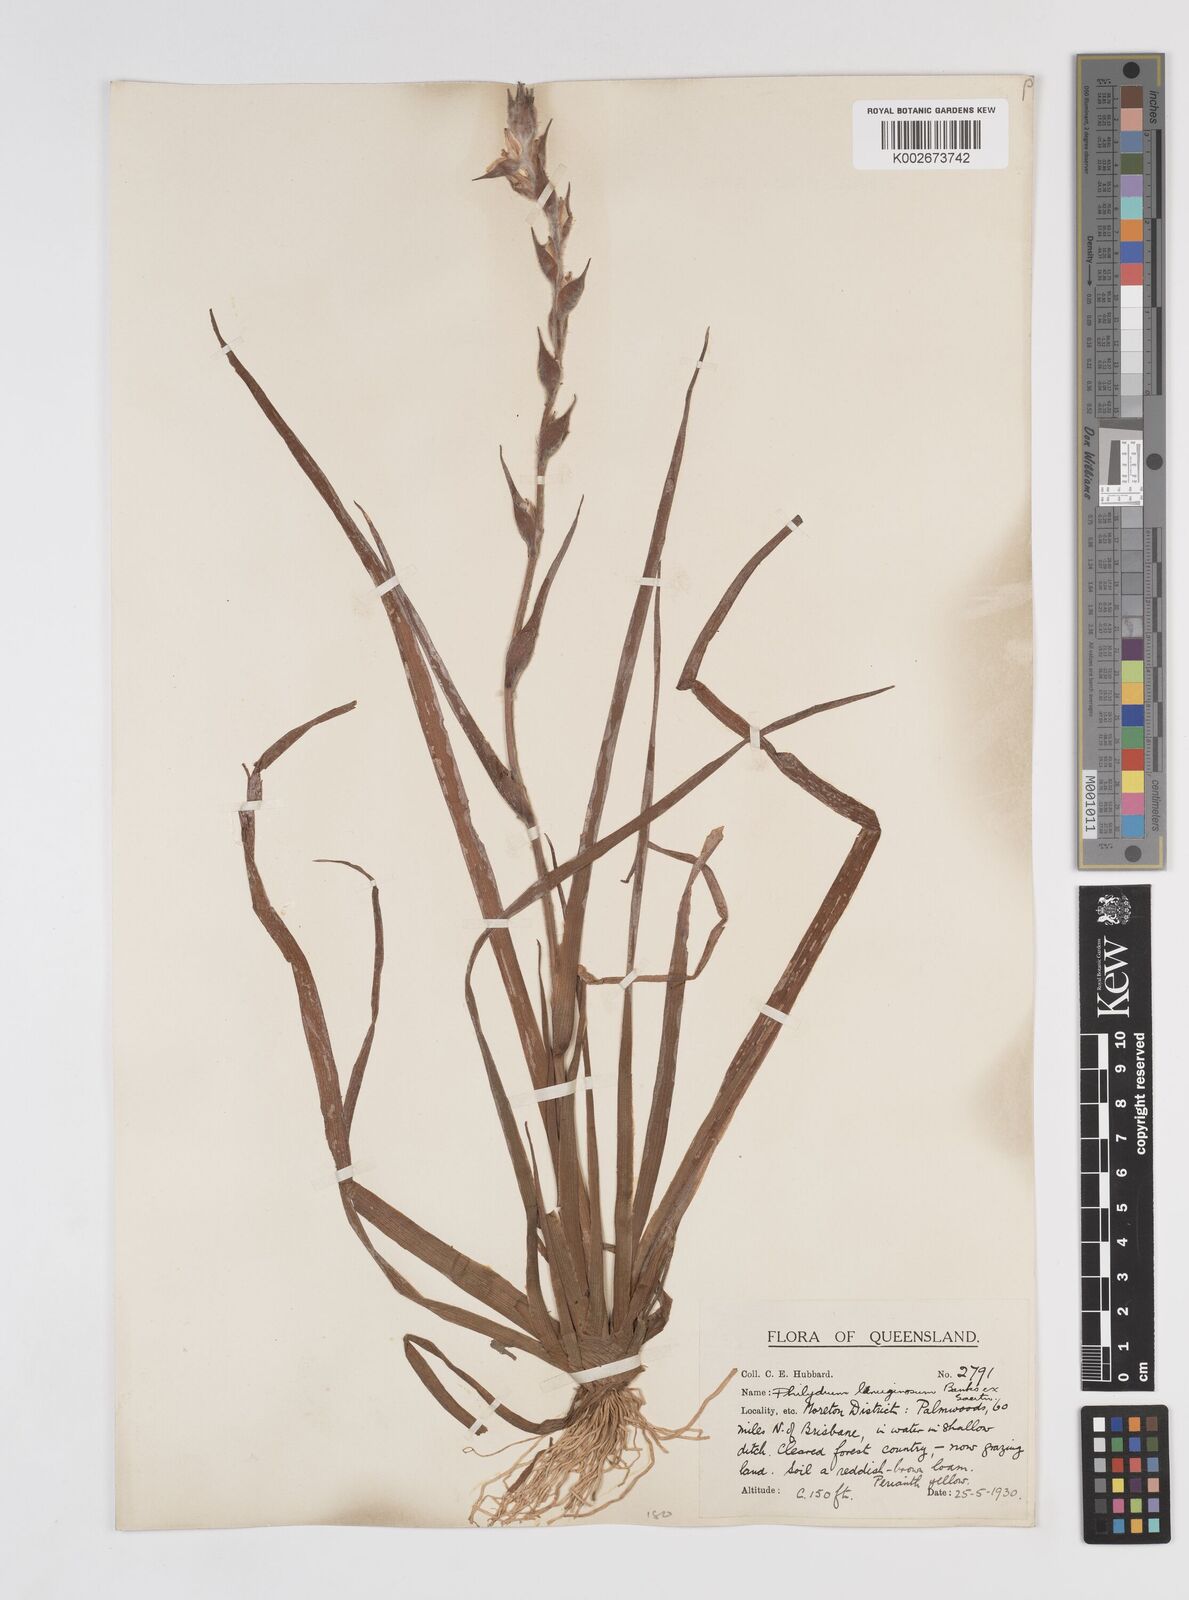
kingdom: Plantae
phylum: Tracheophyta
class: Liliopsida
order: Commelinales
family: Philydraceae
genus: Philydrum
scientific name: Philydrum lanuginosum
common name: Woolly frog's mouth
